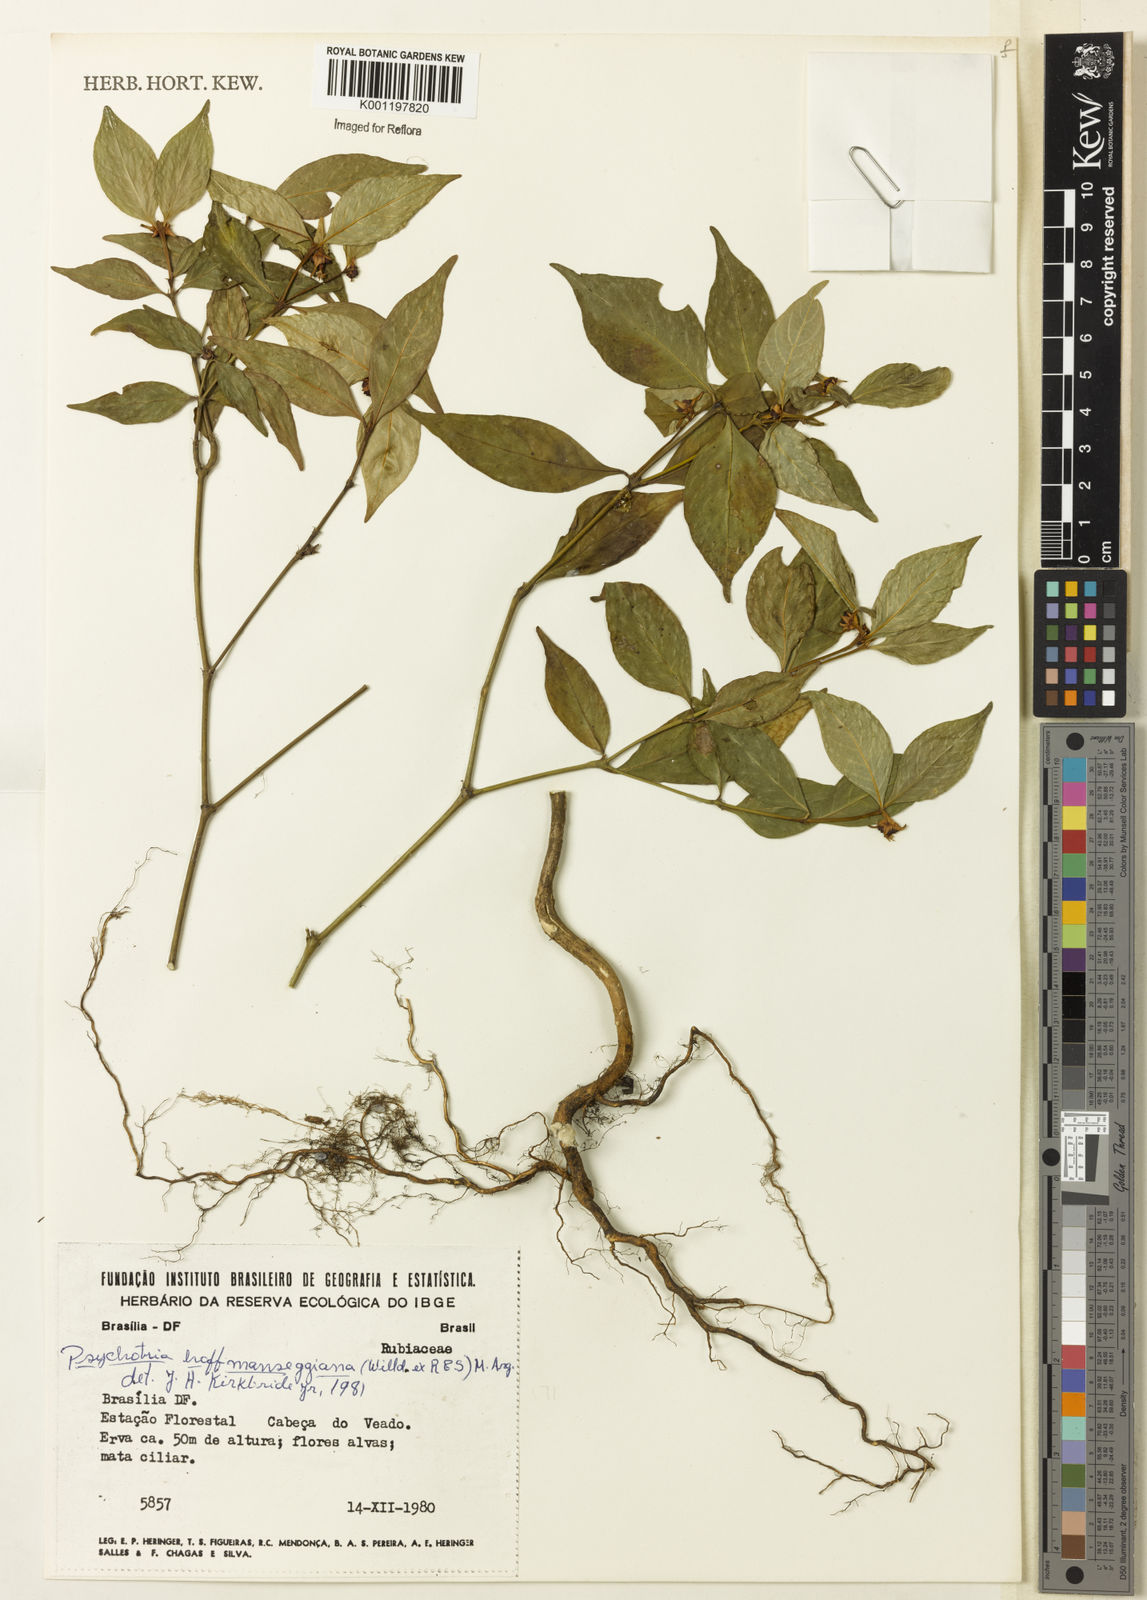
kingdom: Plantae
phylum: Tracheophyta
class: Magnoliopsida
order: Gentianales
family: Rubiaceae
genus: Psychotria
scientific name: Psychotria
